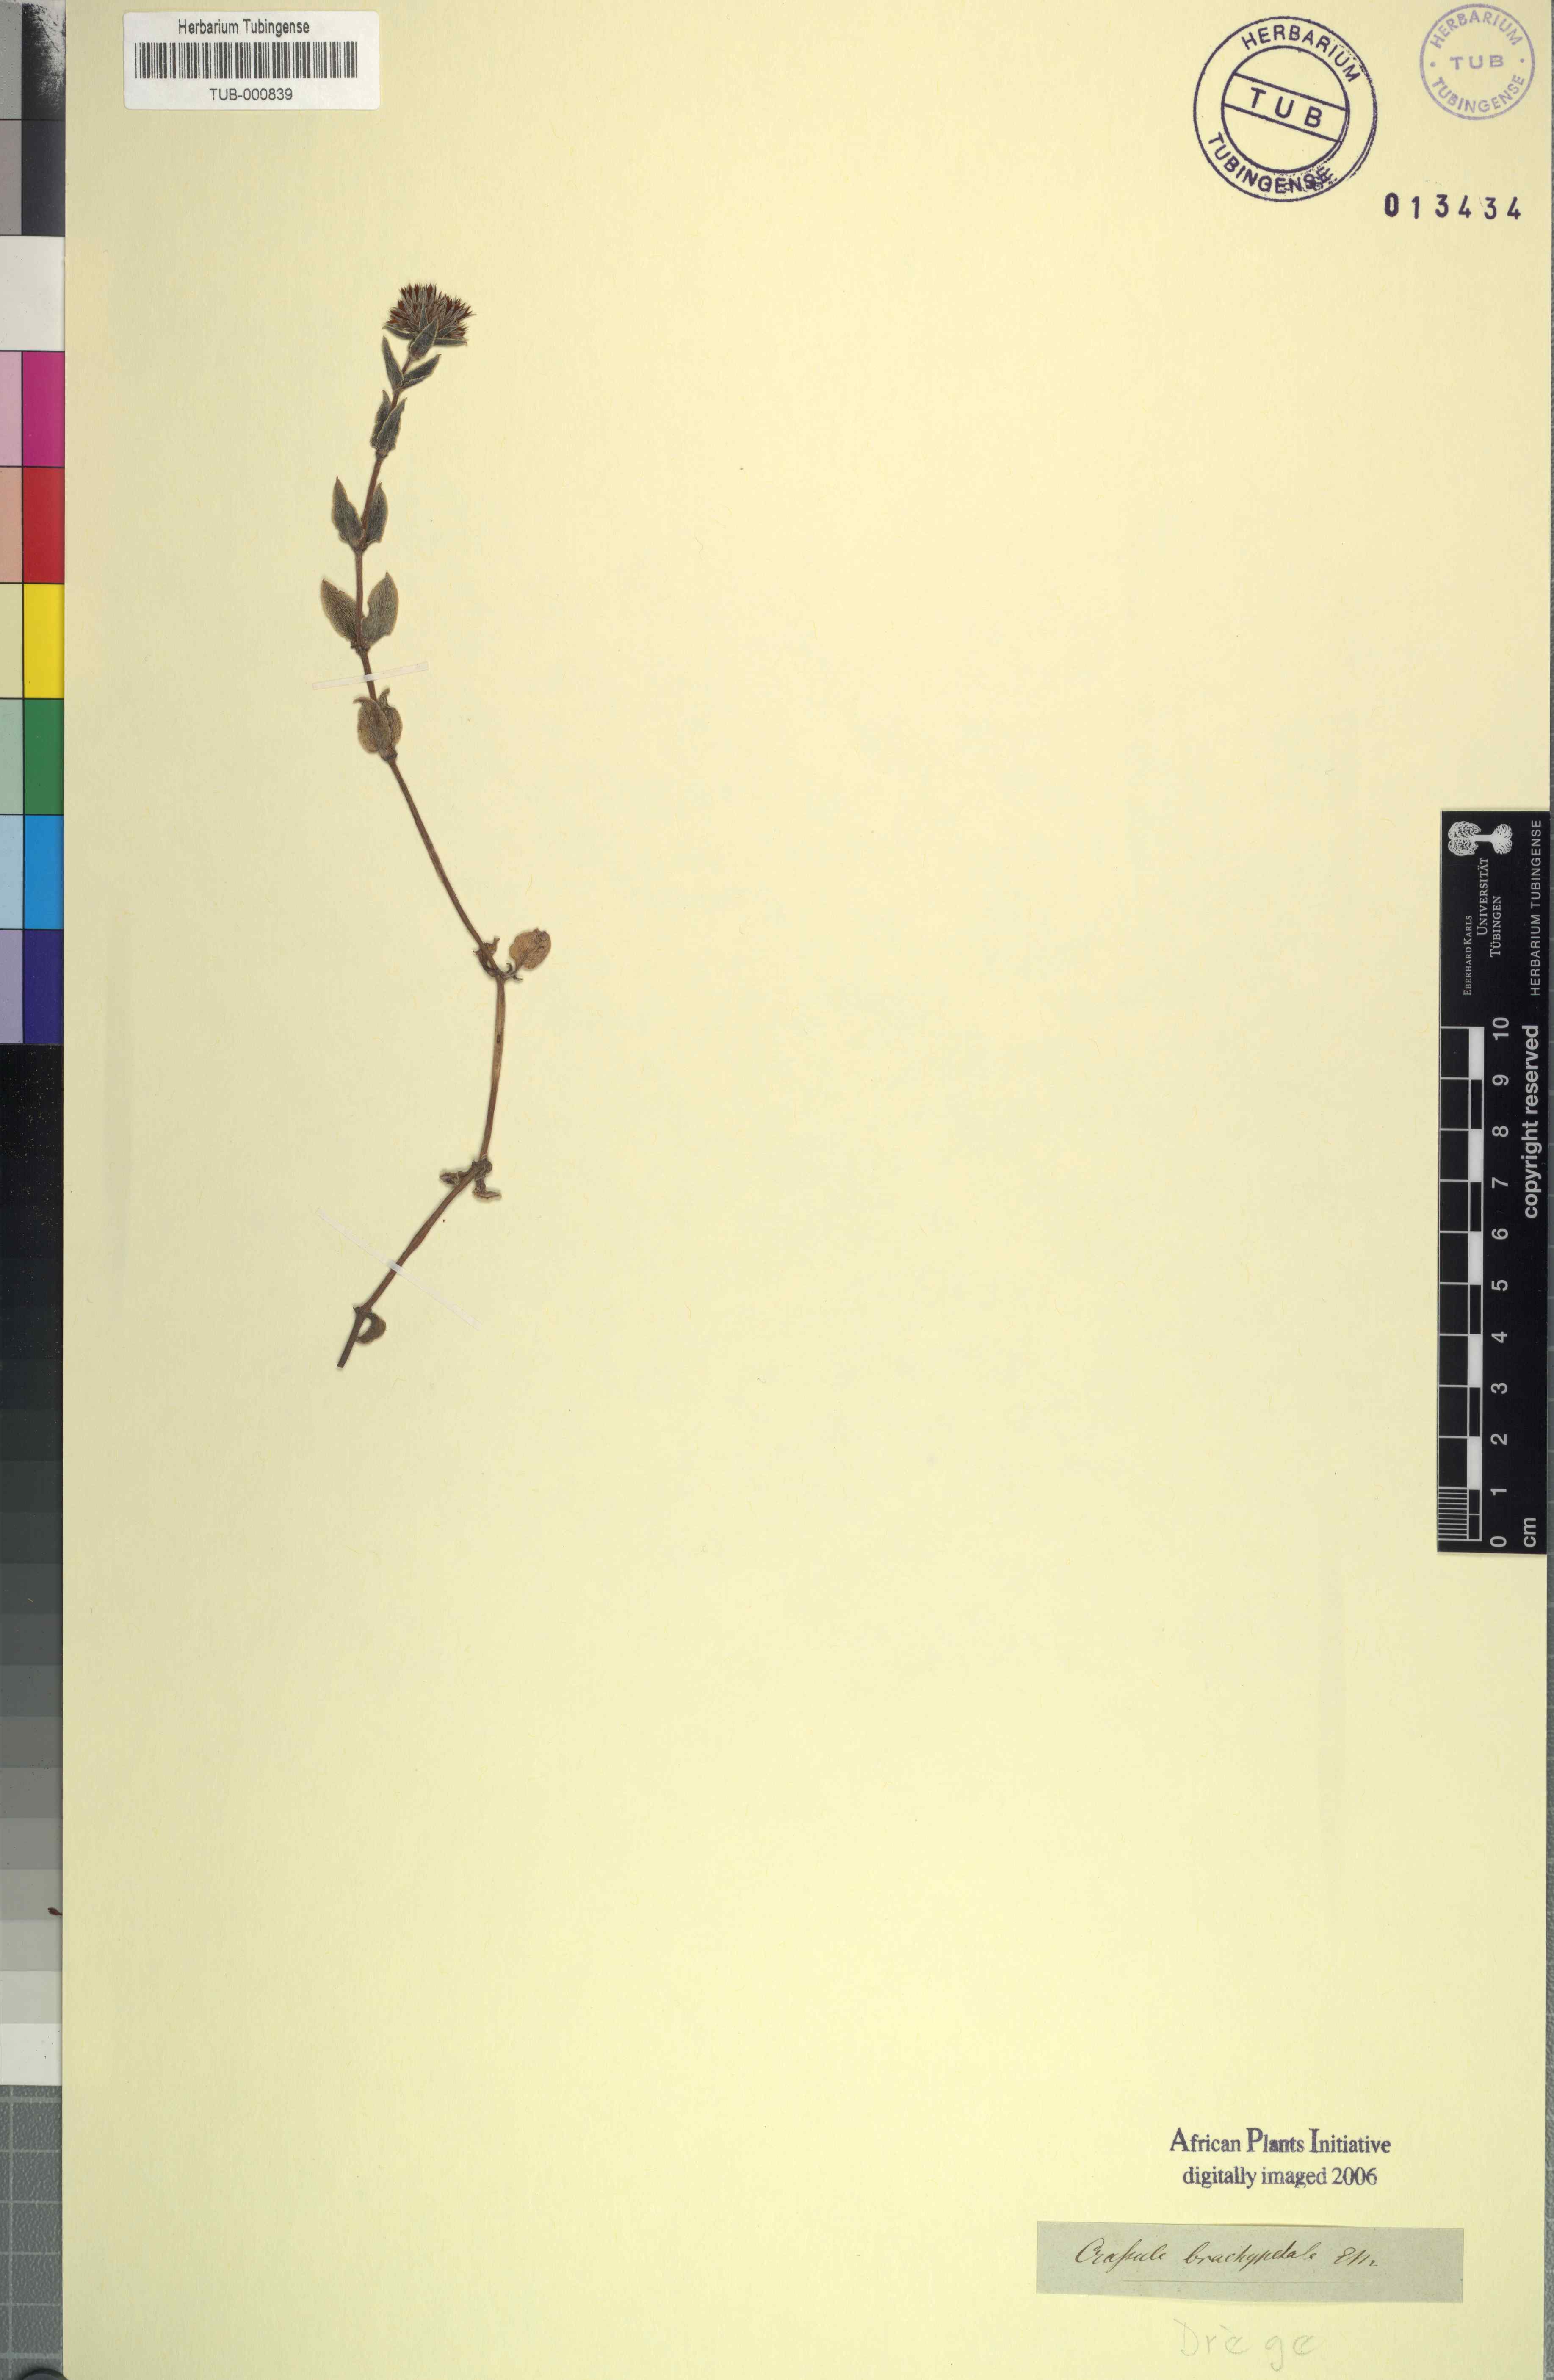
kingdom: Plantae
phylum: Tracheophyta
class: Magnoliopsida
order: Saxifragales
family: Crassulaceae
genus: Crassula
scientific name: Crassula pellucida
